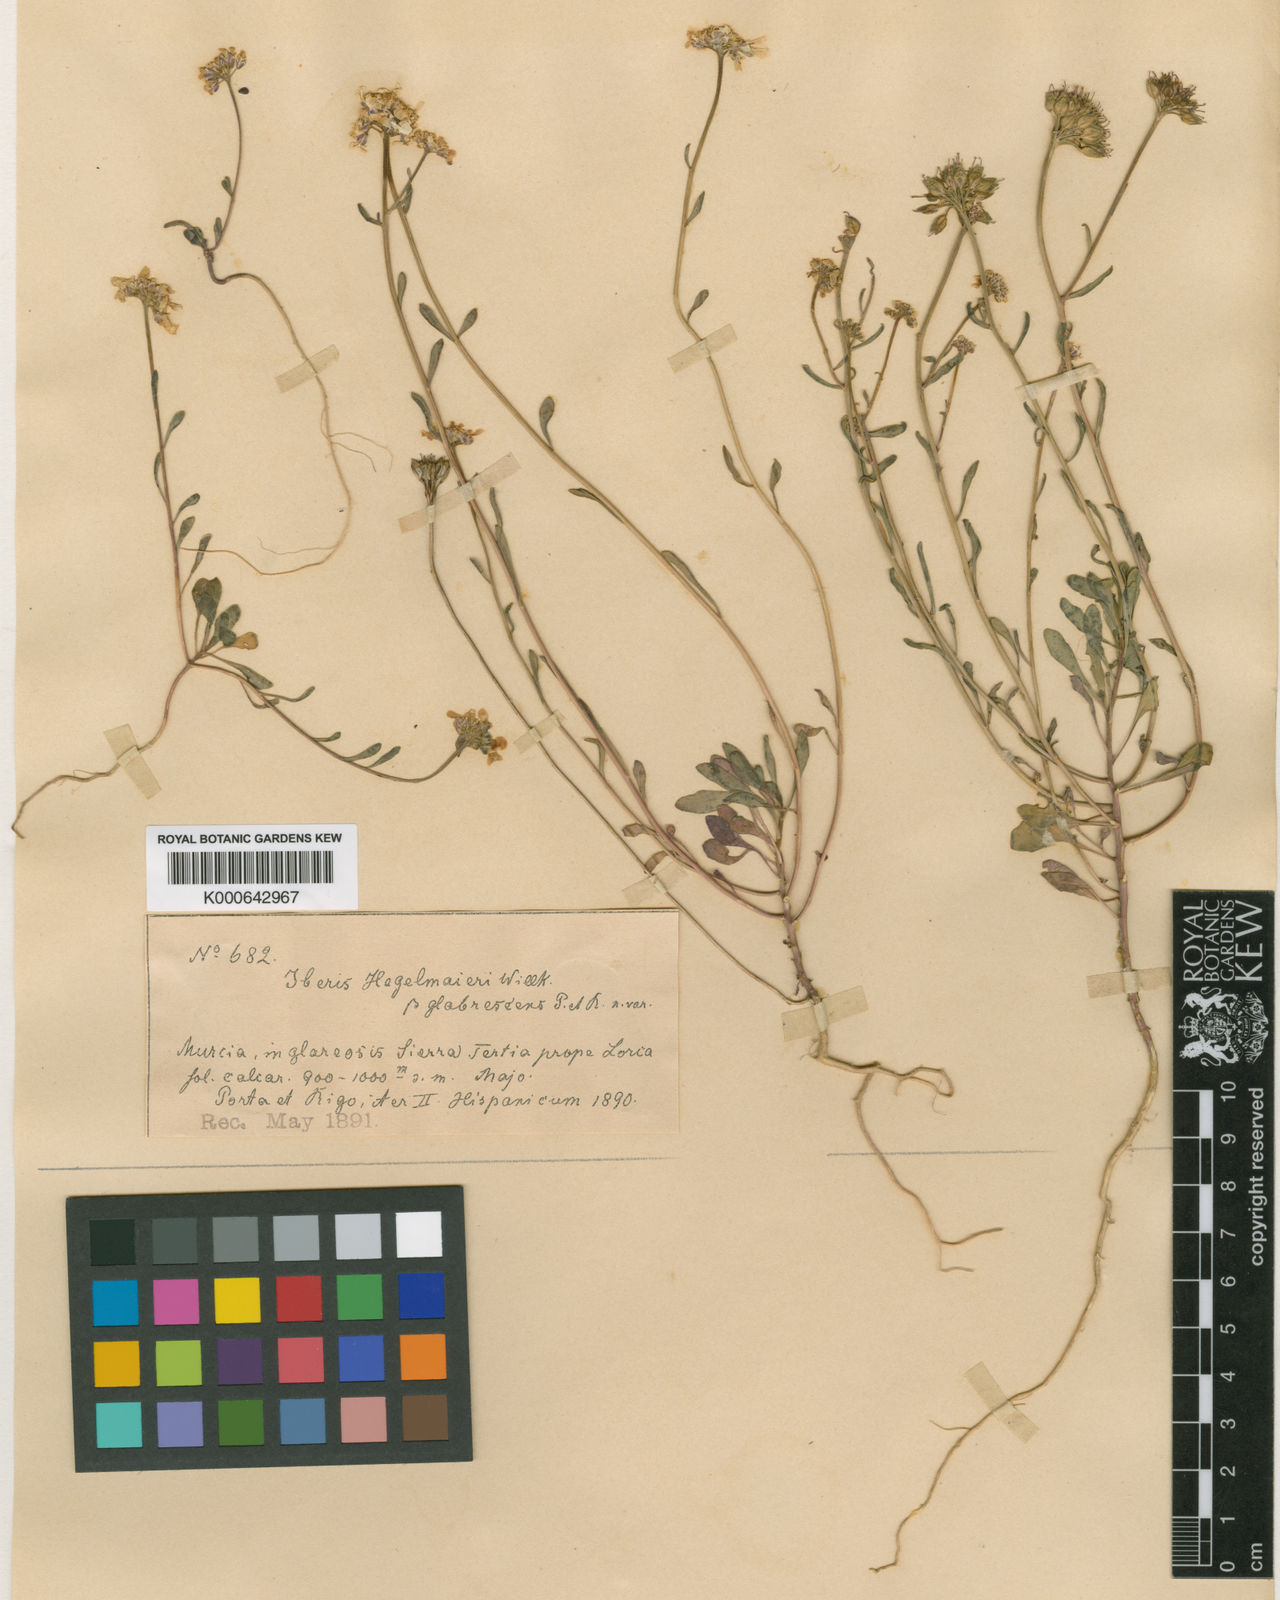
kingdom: Plantae
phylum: Tracheophyta
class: Magnoliopsida
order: Brassicales
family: Brassicaceae
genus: Iberis
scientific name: Iberis linifolia
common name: Candytuft
